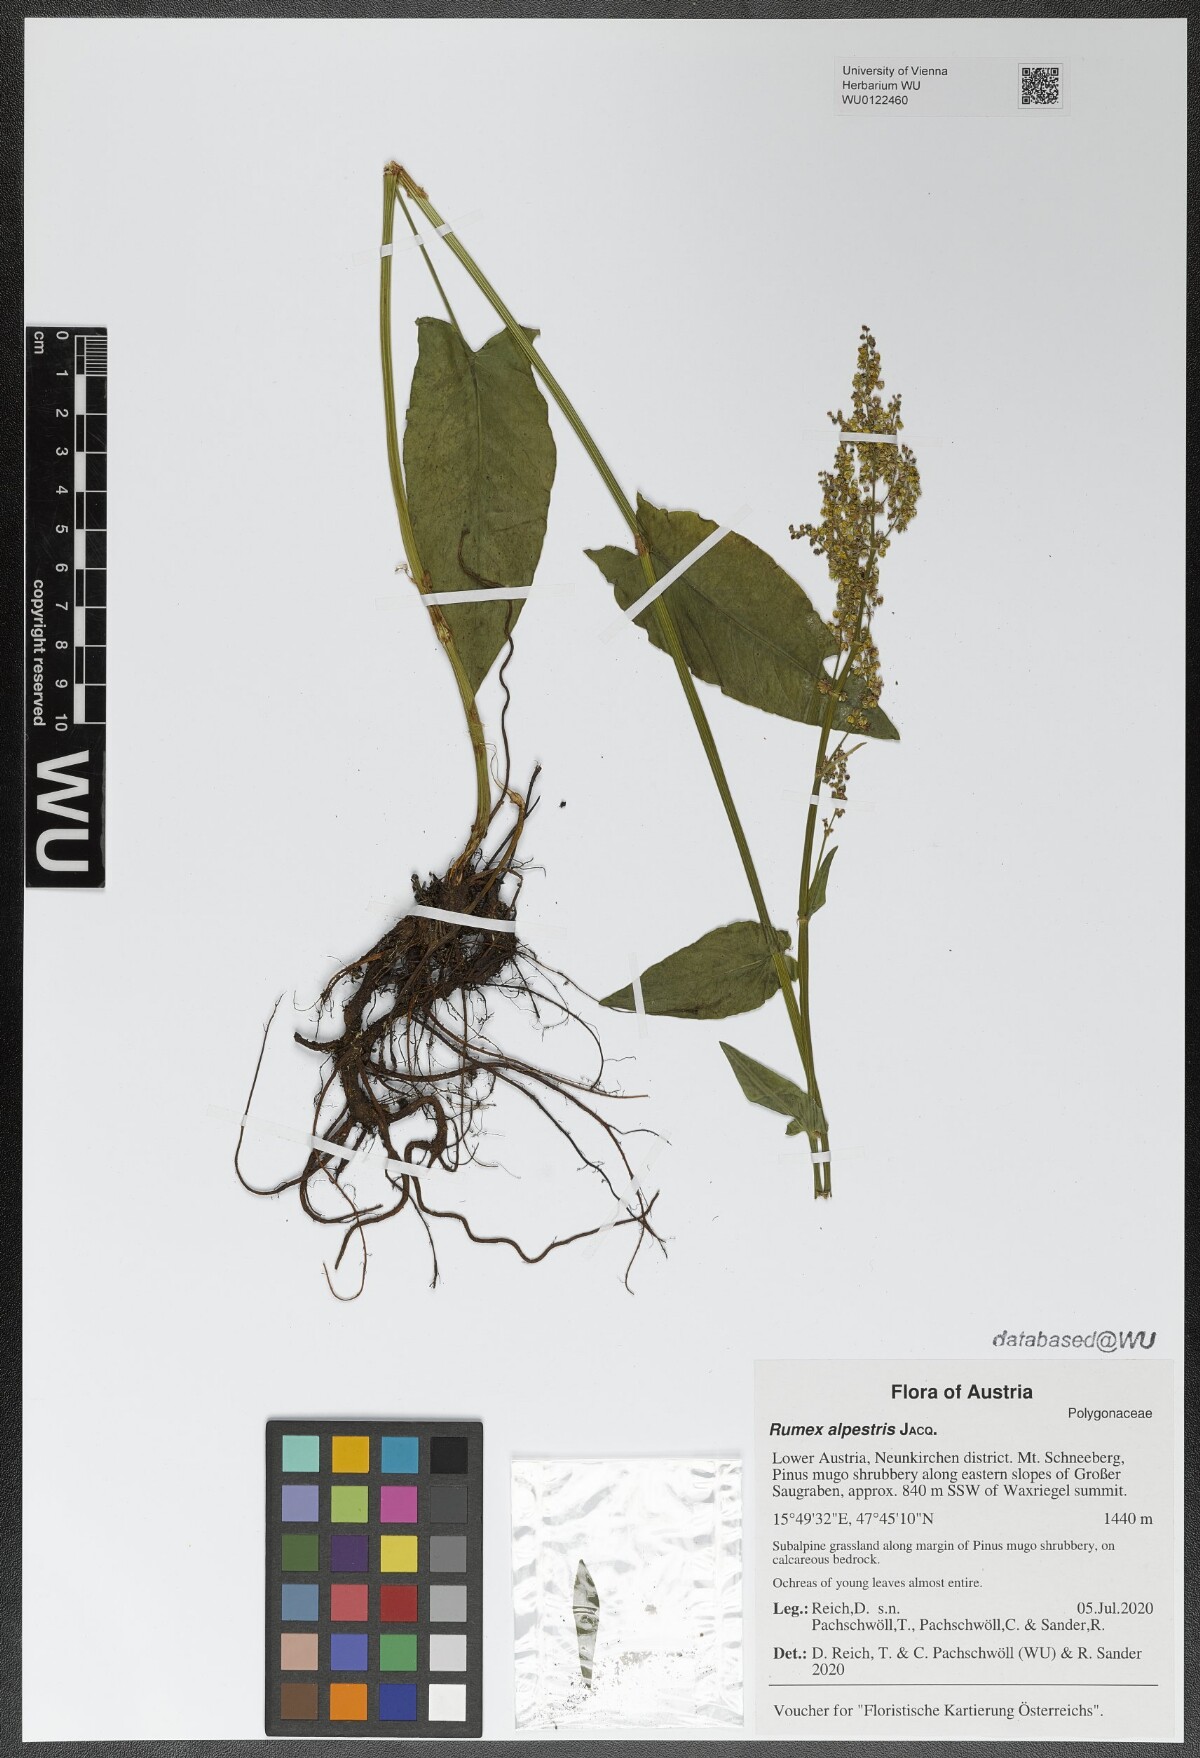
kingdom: Plantae
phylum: Tracheophyta
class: Magnoliopsida
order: Caryophyllales
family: Polygonaceae
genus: Rumex
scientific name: Rumex scutatus
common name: French sorrel
